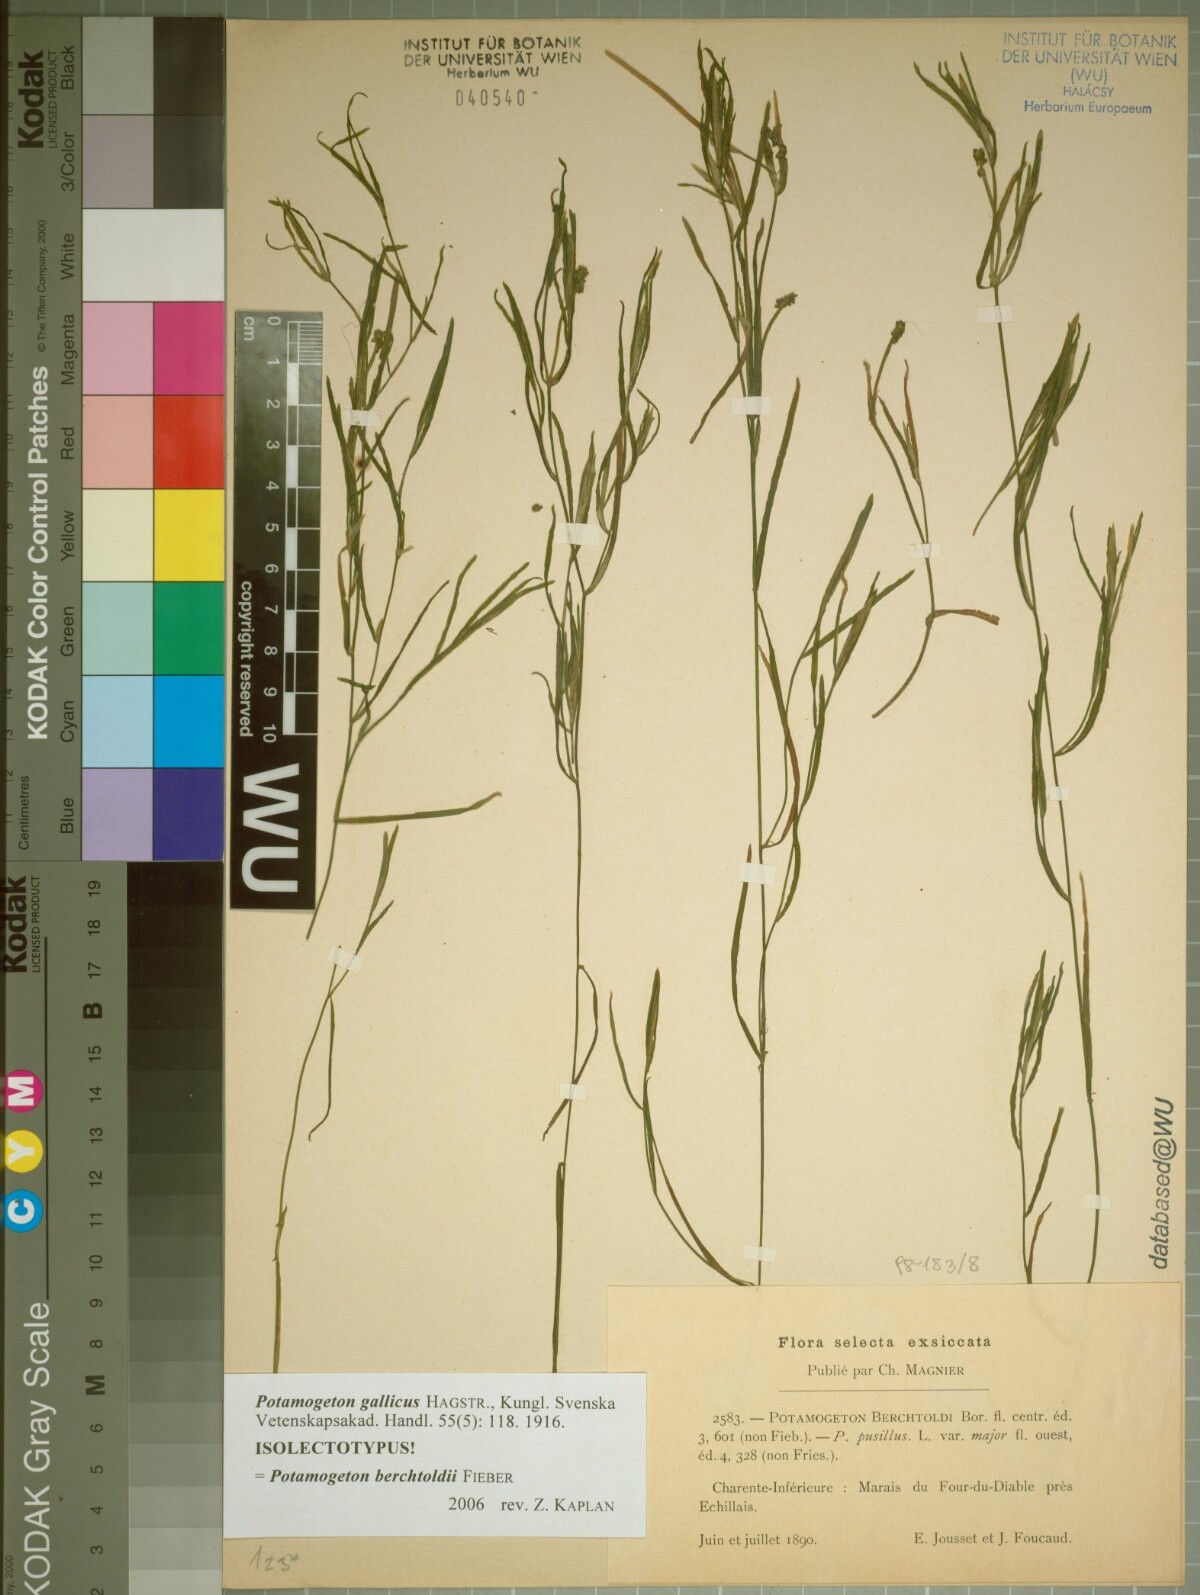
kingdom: Plantae
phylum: Tracheophyta
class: Liliopsida
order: Alismatales
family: Potamogetonaceae
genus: Potamogeton
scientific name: Potamogeton gallicus
